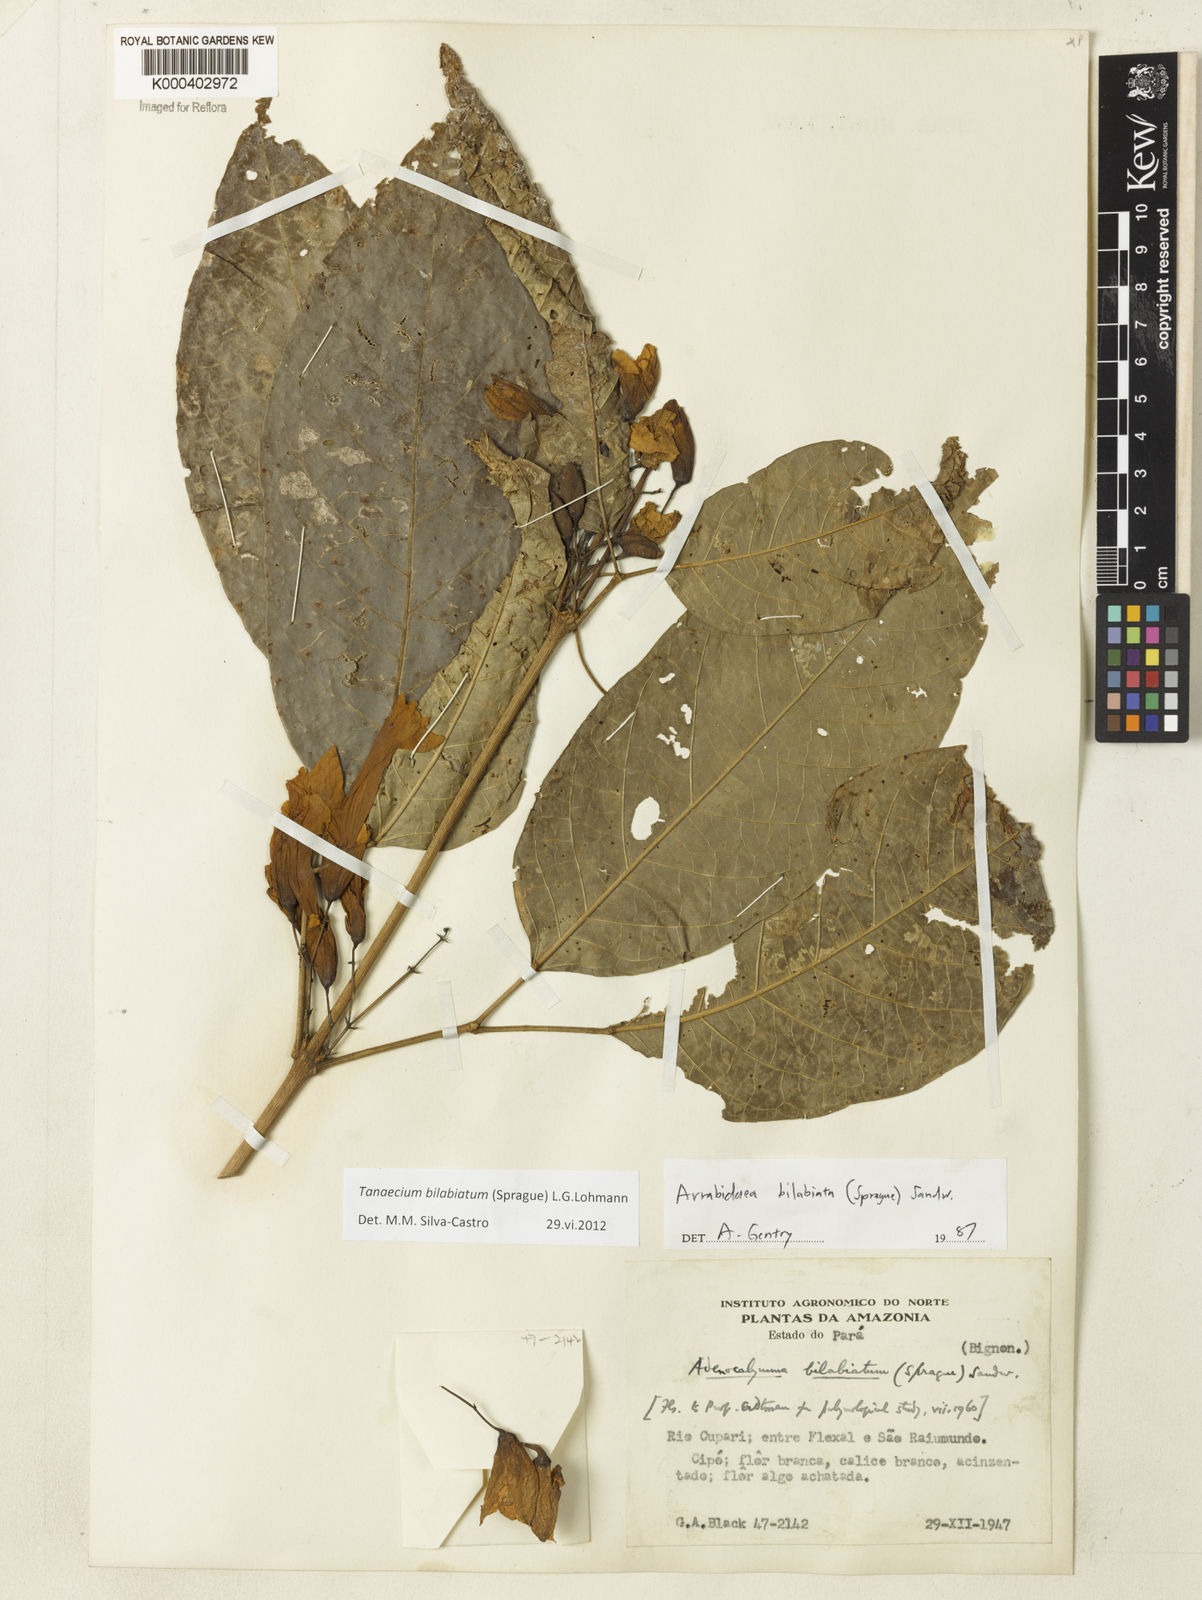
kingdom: Plantae
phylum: Tracheophyta
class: Magnoliopsida
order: Lamiales
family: Bignoniaceae
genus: Tanaecium
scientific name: Tanaecium bilabiatum
